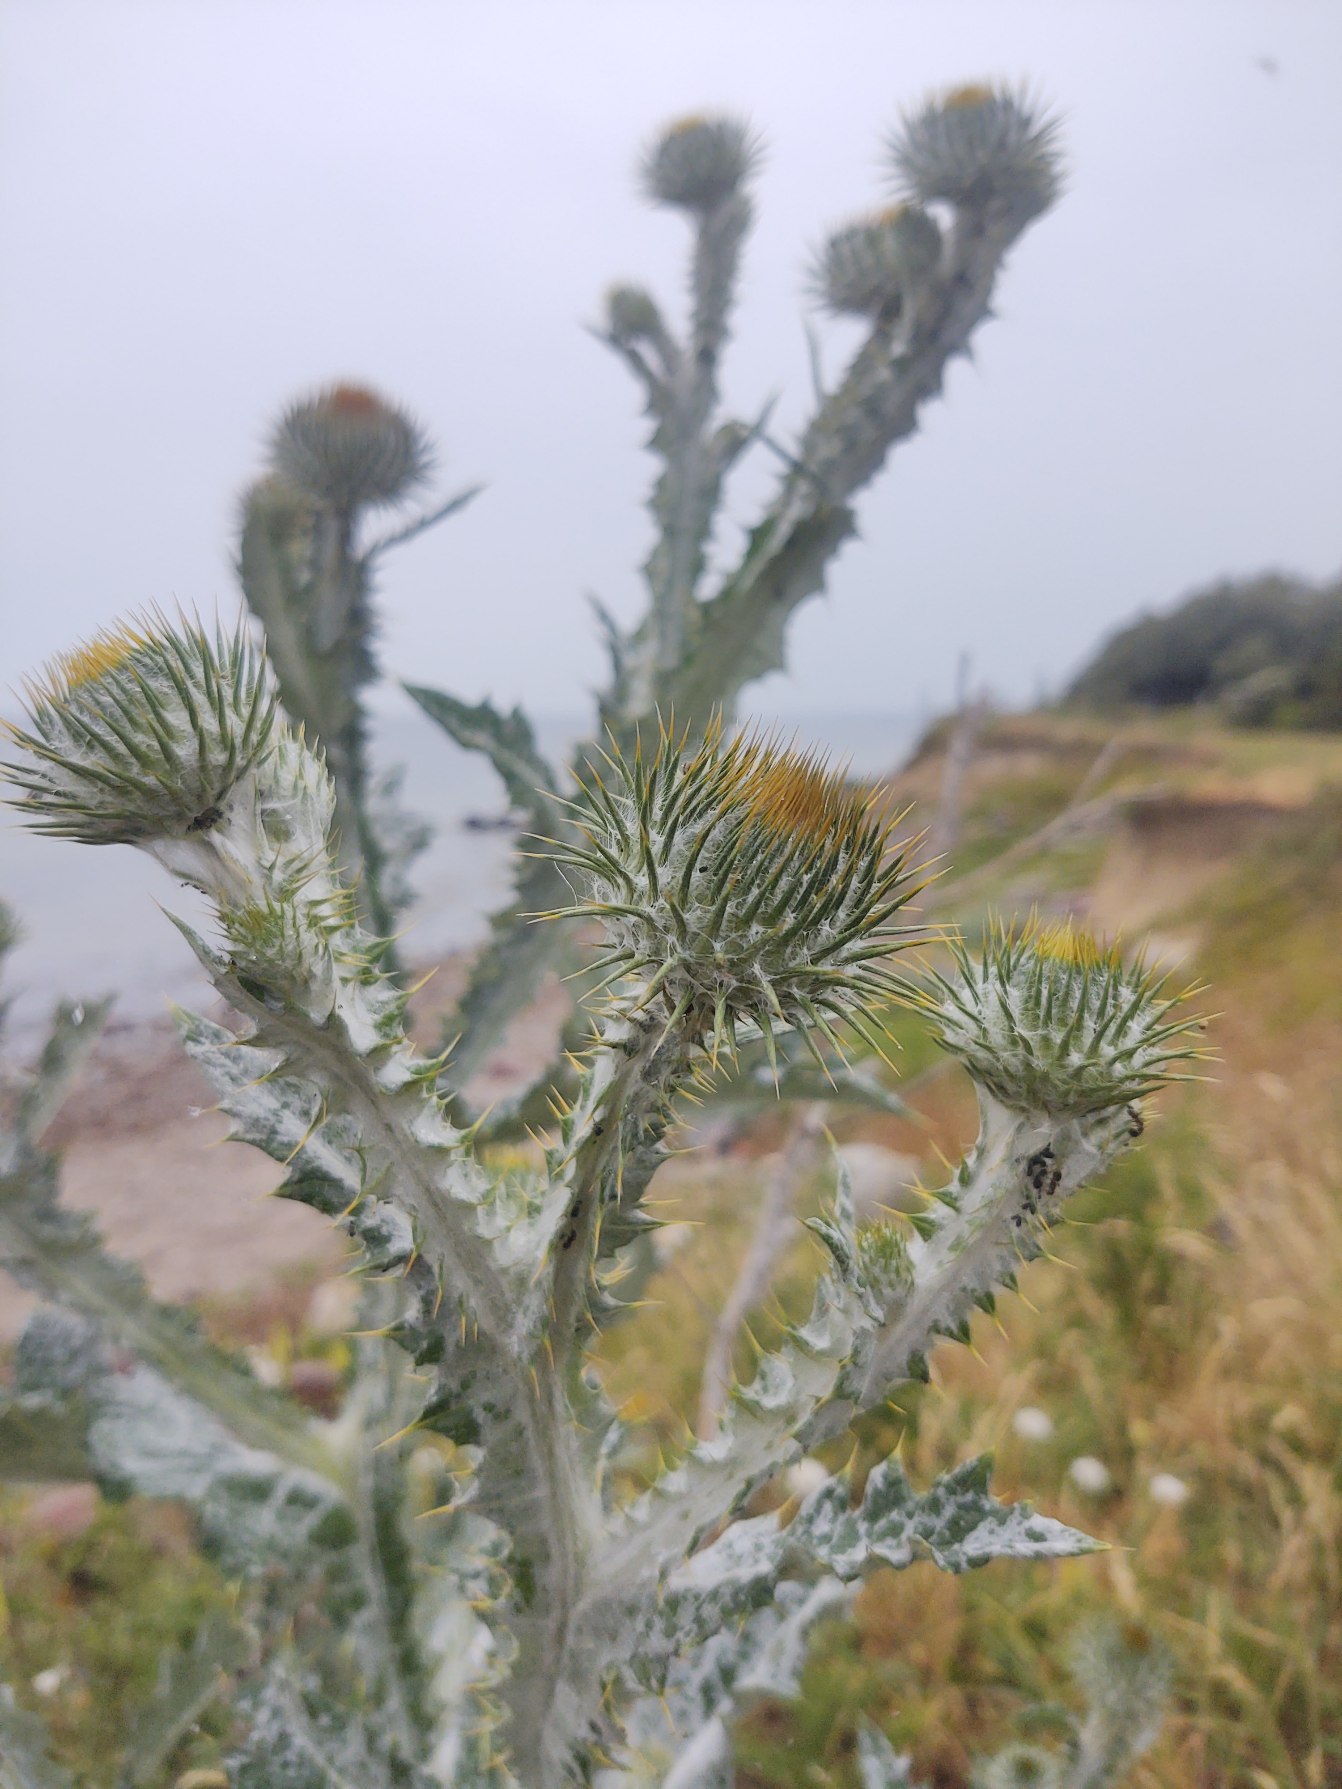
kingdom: Plantae
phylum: Tracheophyta
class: Magnoliopsida
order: Asterales
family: Asteraceae
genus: Onopordum
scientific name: Onopordum acanthium
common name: Æselfoder
